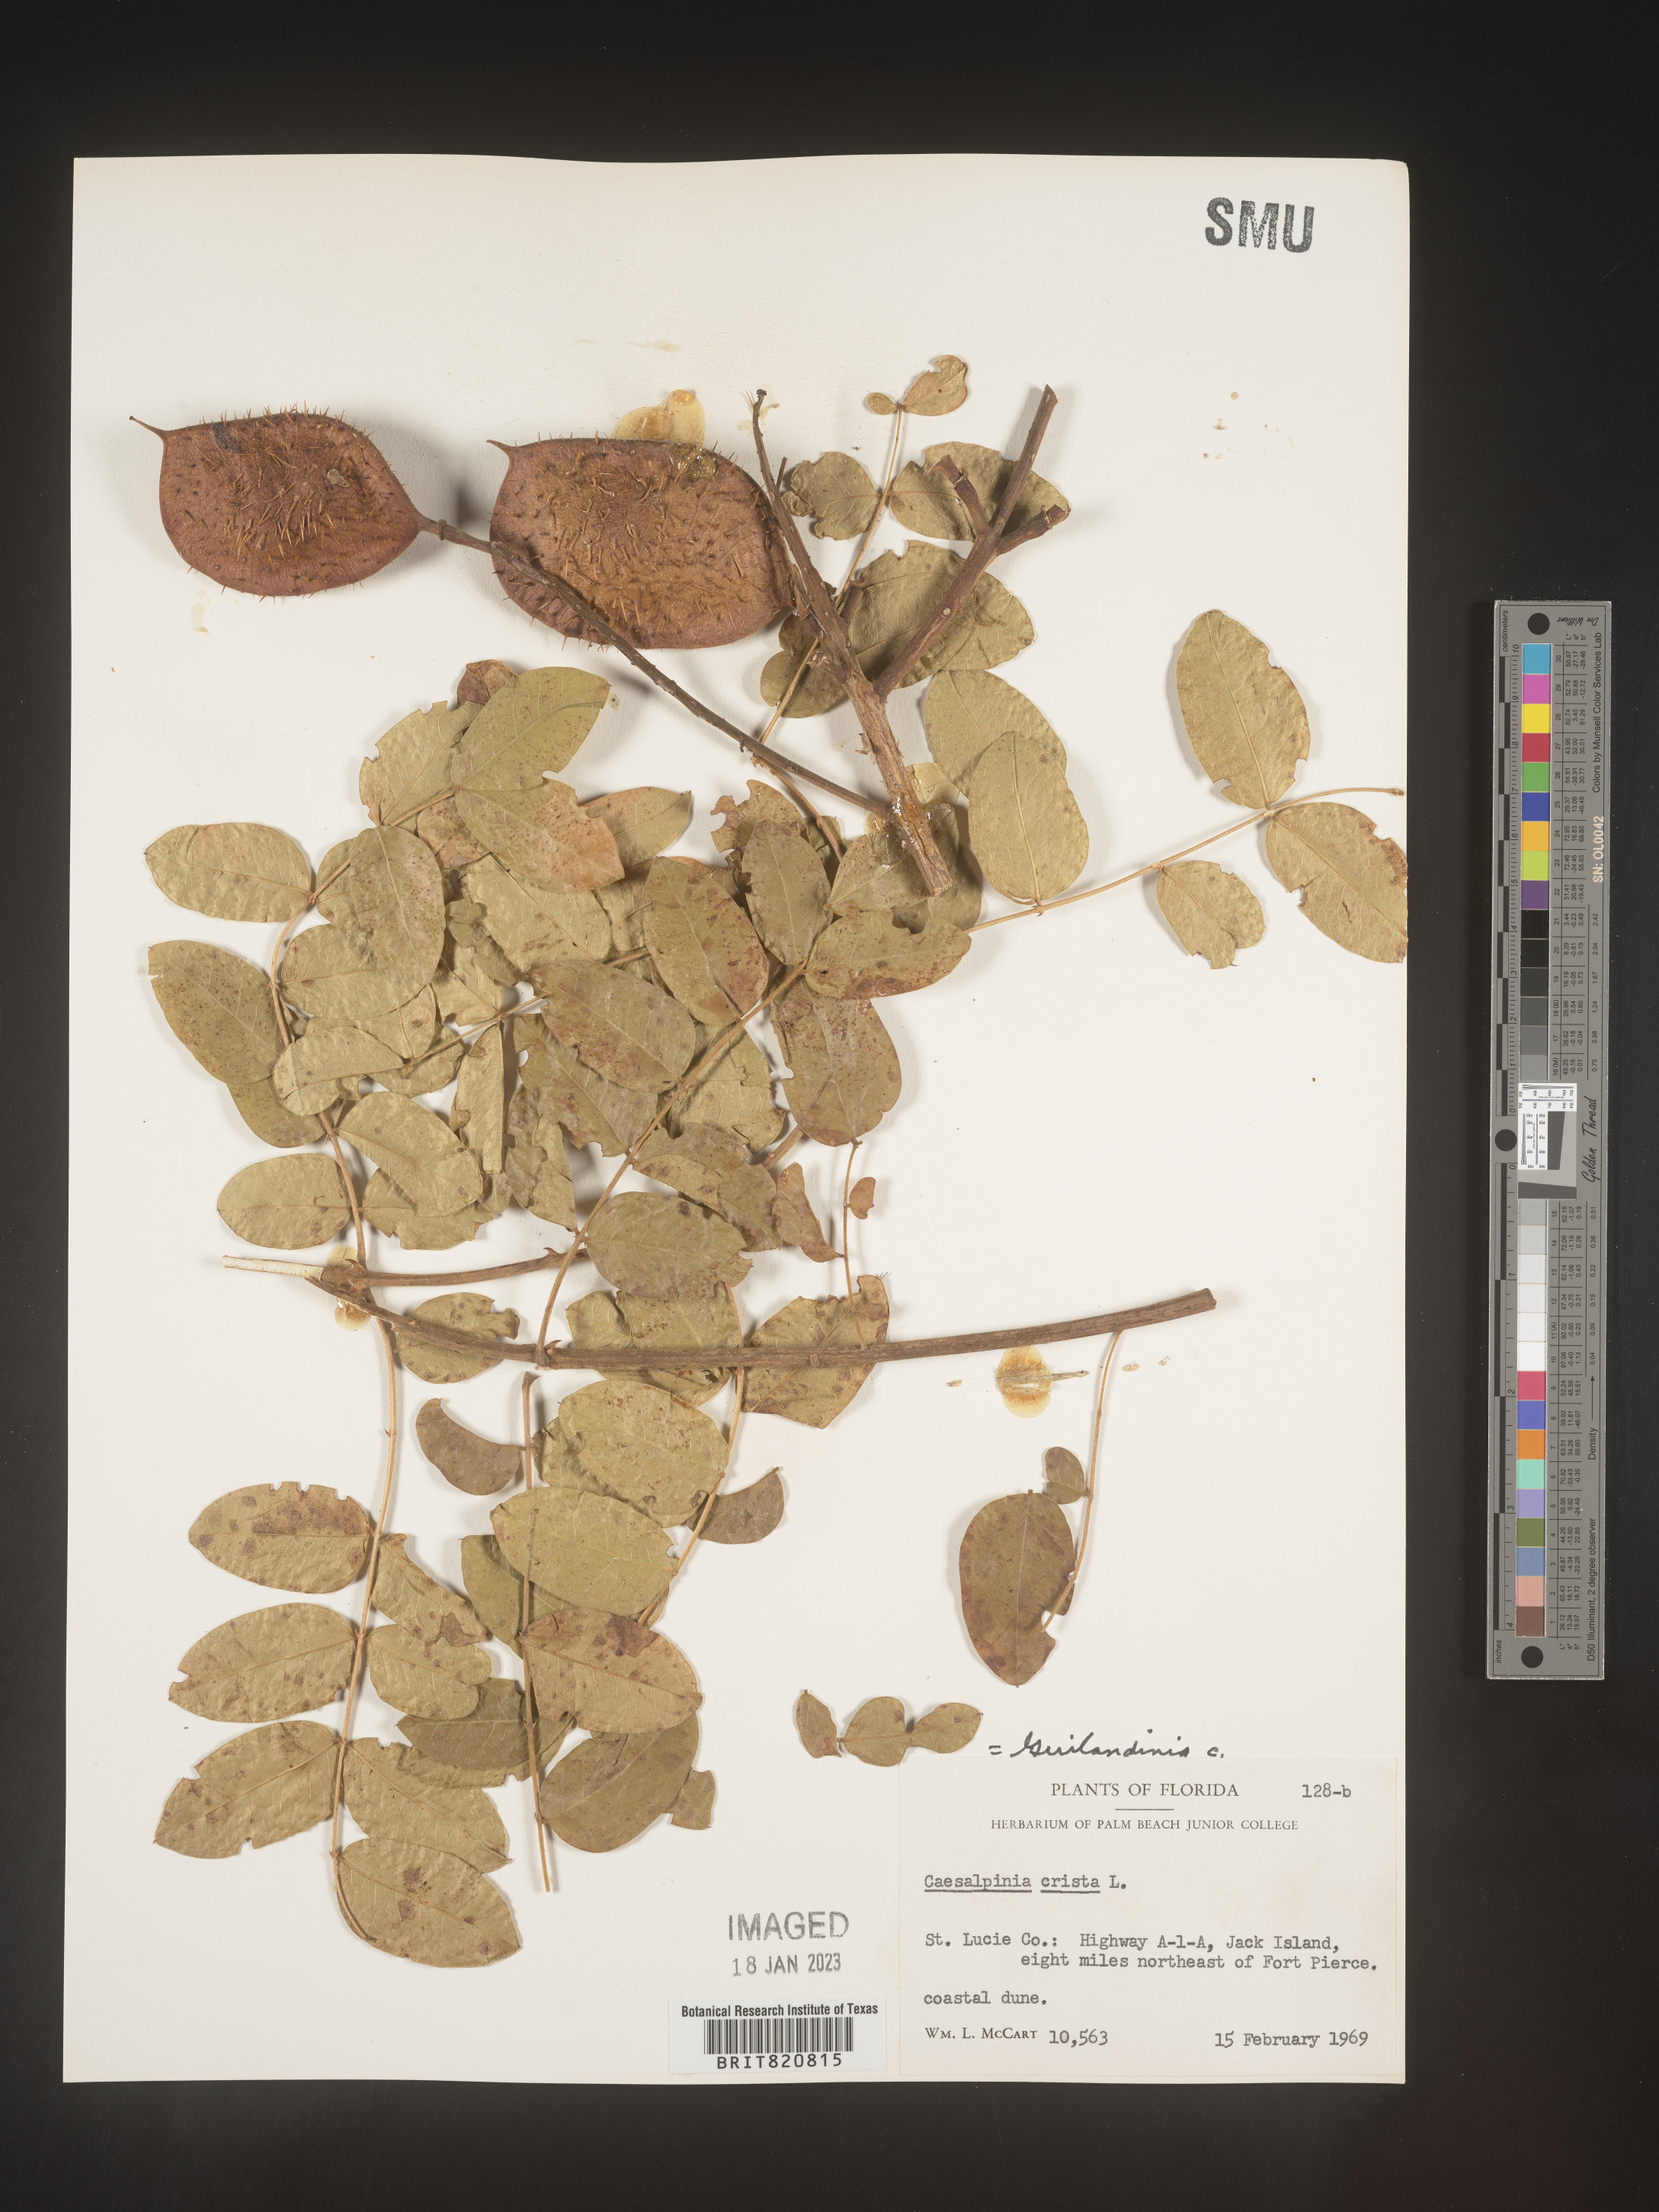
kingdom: Plantae
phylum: Tracheophyta
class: Magnoliopsida
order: Fabales
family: Fabaceae
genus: Guilandina
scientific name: Guilandina
